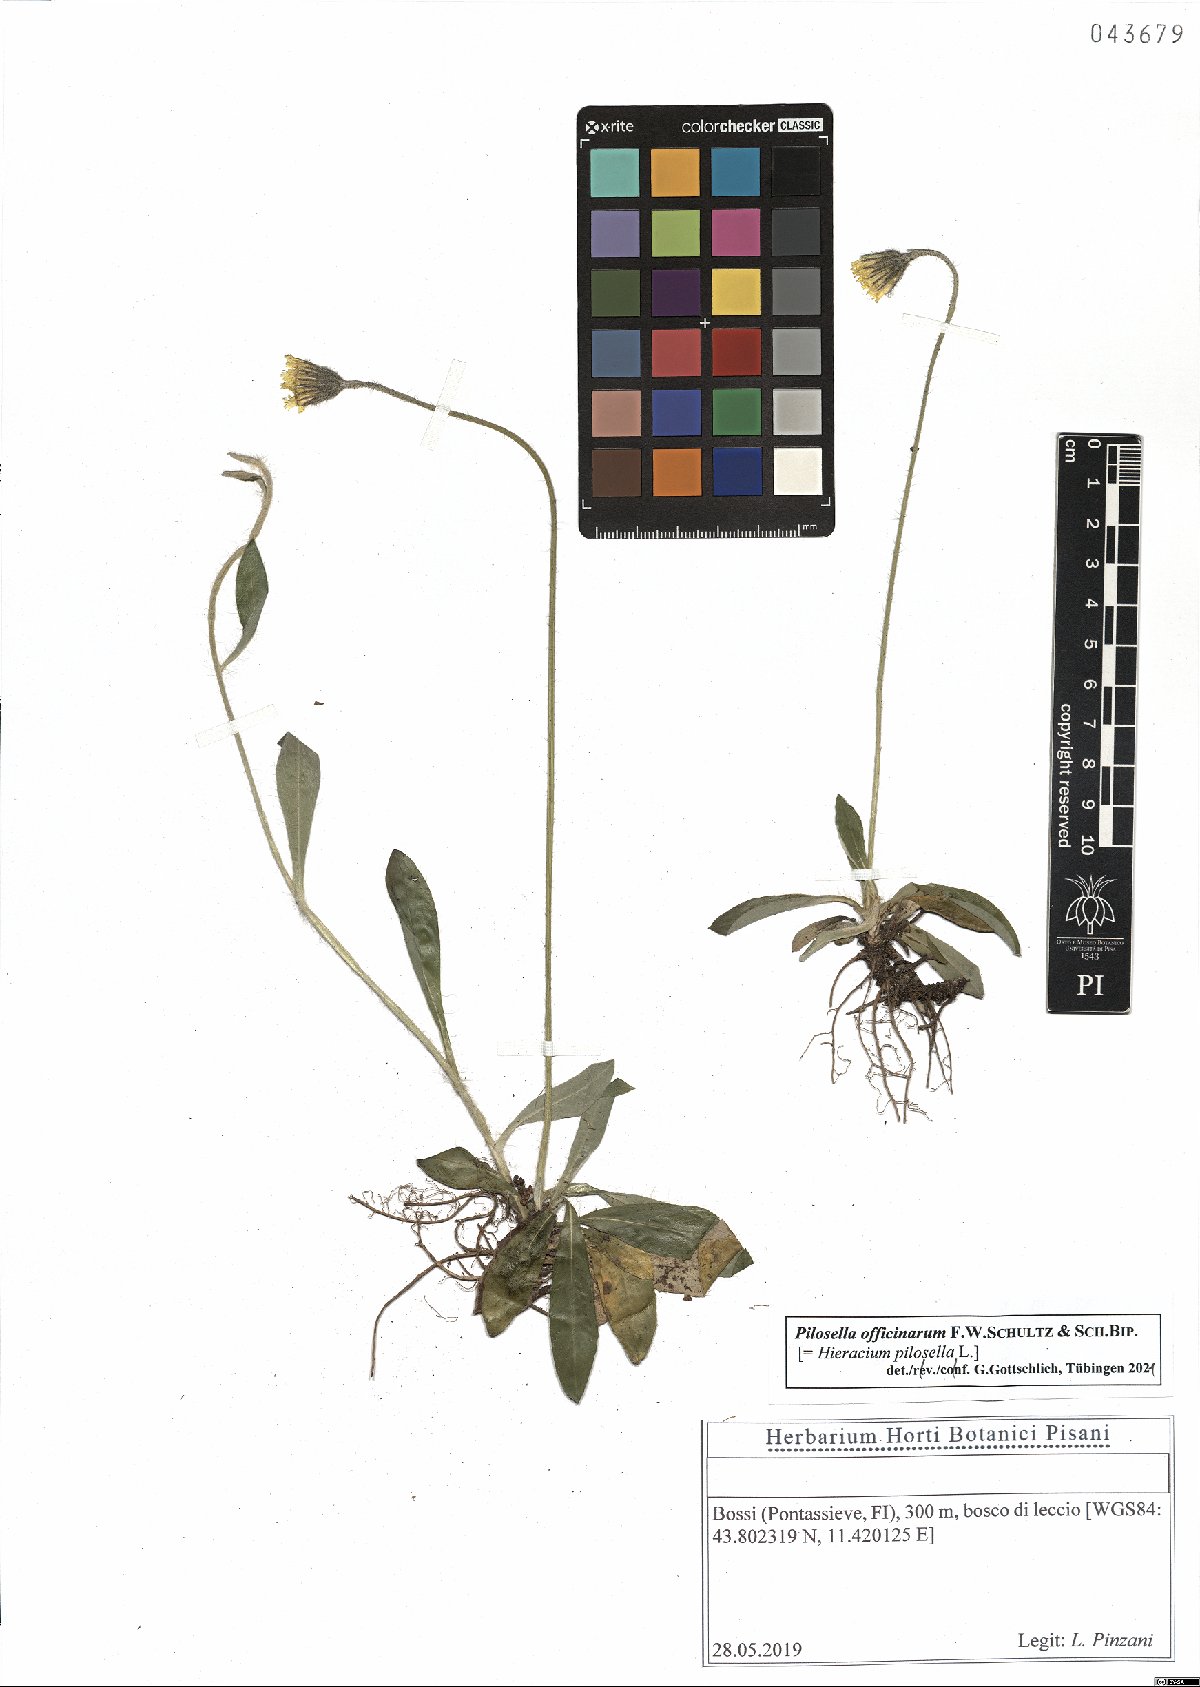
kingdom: Plantae
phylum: Tracheophyta
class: Magnoliopsida
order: Asterales
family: Asteraceae
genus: Pilosella
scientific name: Pilosella officinarum
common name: Mouse-ear hawkweed
